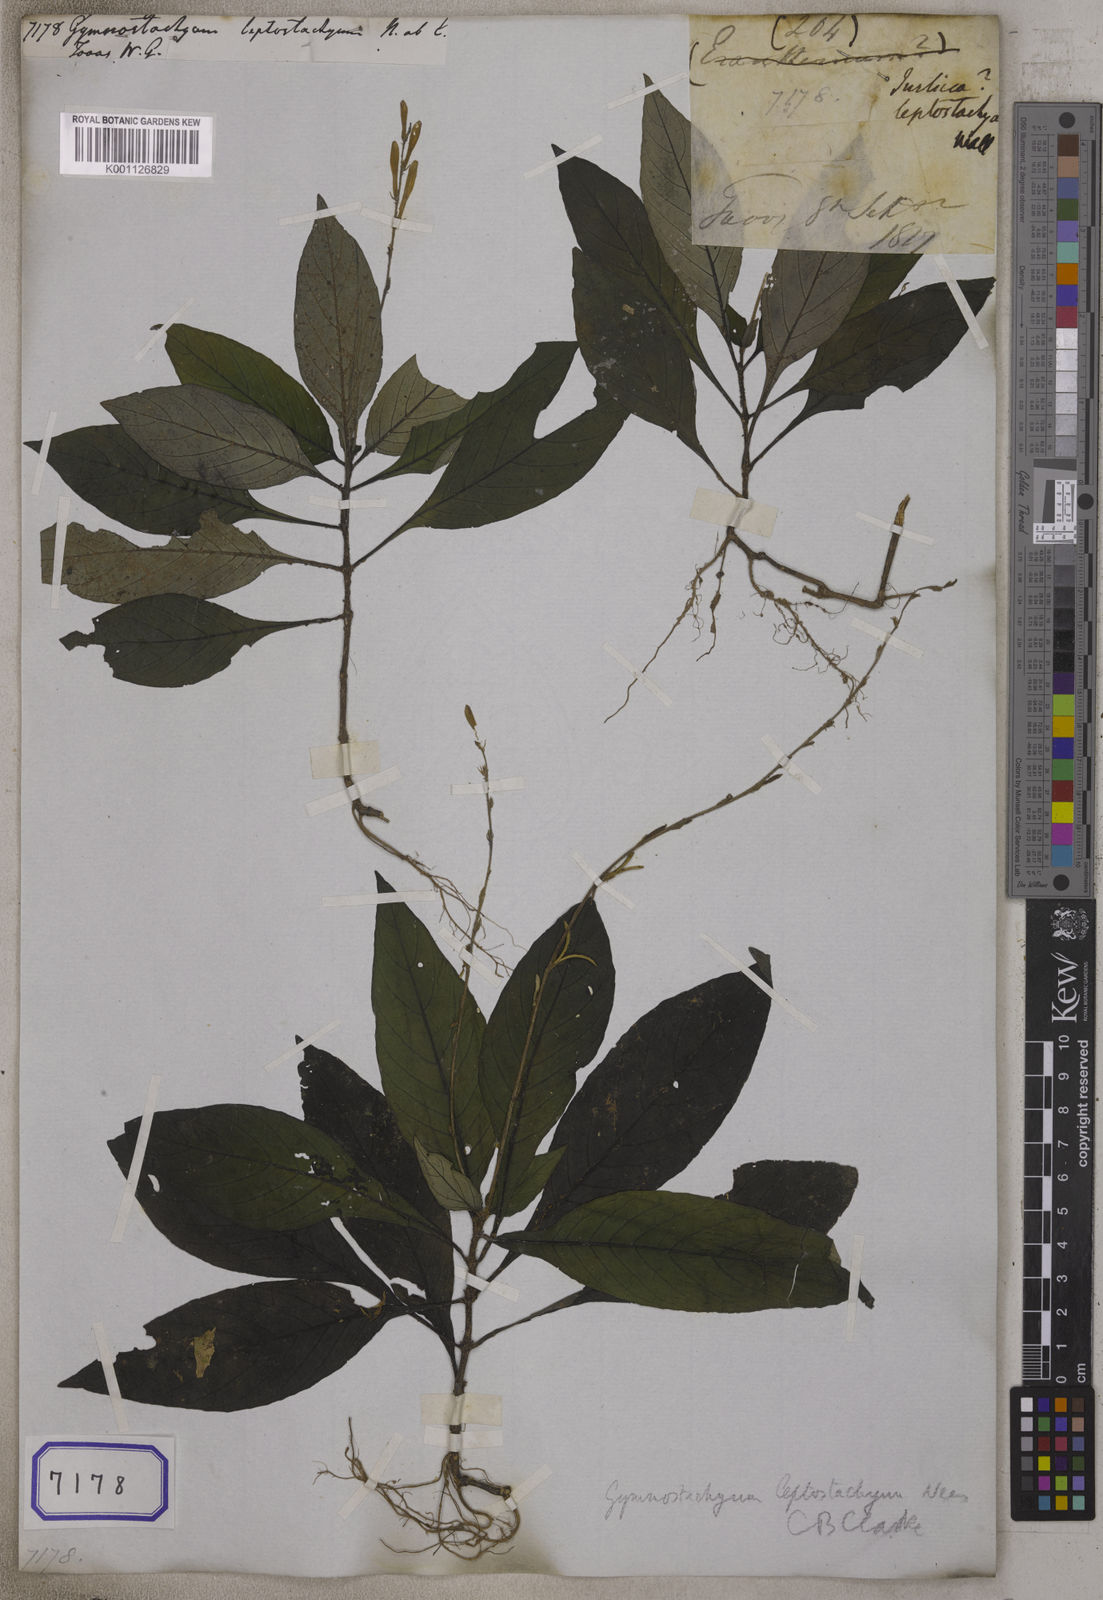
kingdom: Plantae
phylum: Tracheophyta
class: Magnoliopsida
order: Lamiales
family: Acanthaceae
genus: Gymnostachyum
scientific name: Gymnostachyum leptostachyum
